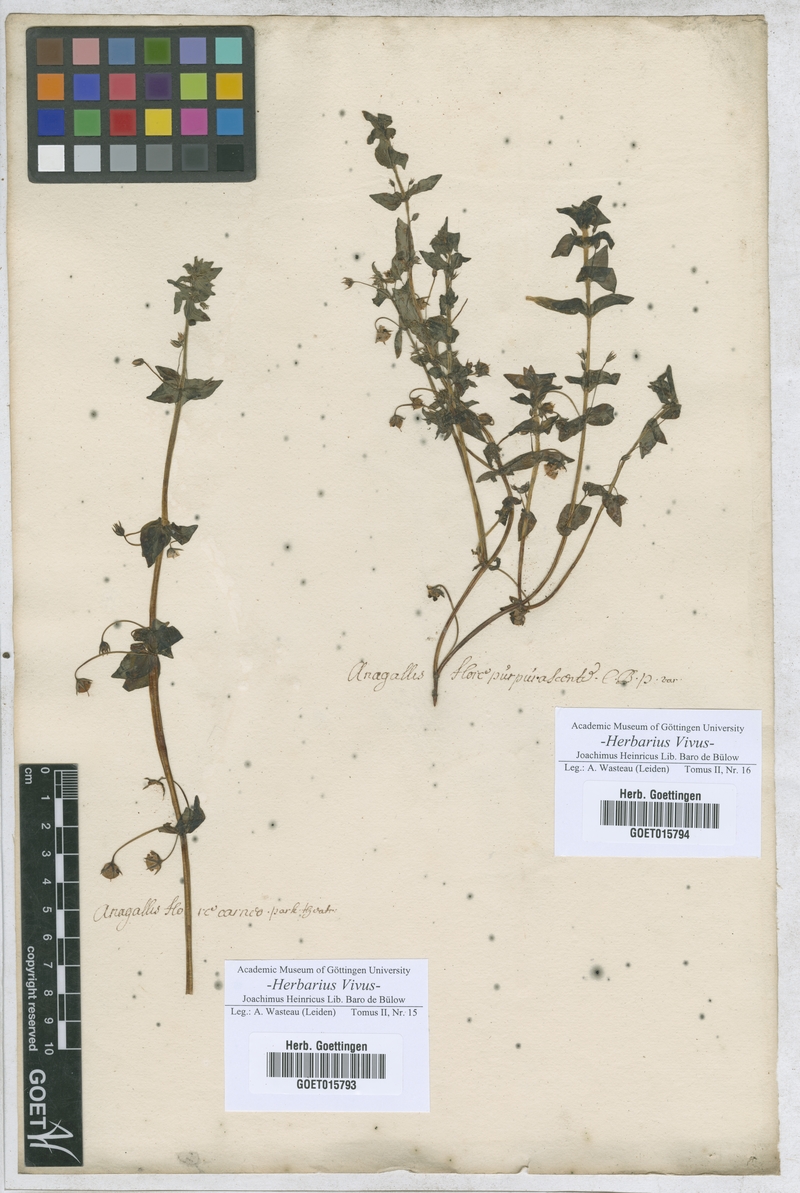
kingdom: Plantae
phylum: Tracheophyta
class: Magnoliopsida
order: Ericales
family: Primulaceae
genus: Lysimachia
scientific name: Lysimachia Anagallis spec
